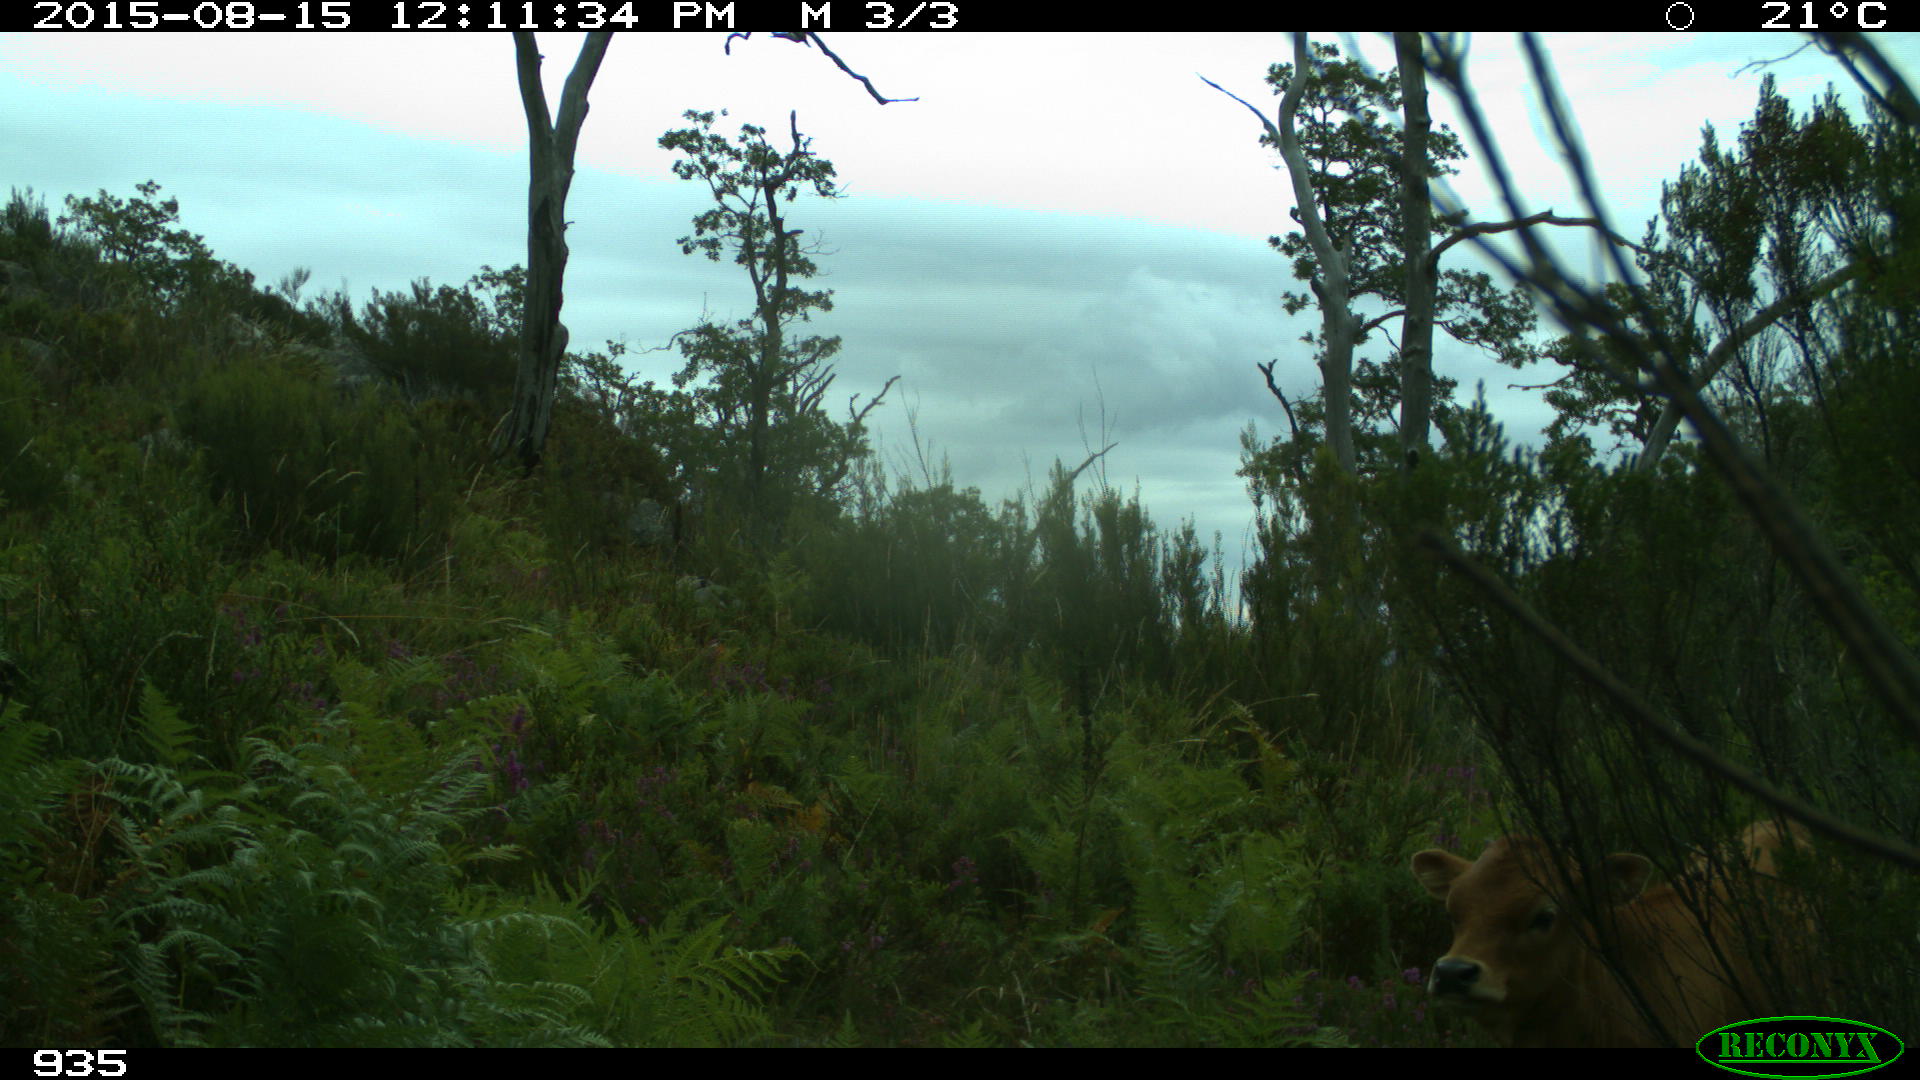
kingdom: Animalia
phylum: Chordata
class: Mammalia
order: Artiodactyla
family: Bovidae
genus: Bos
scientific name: Bos taurus
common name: Domesticated cattle
